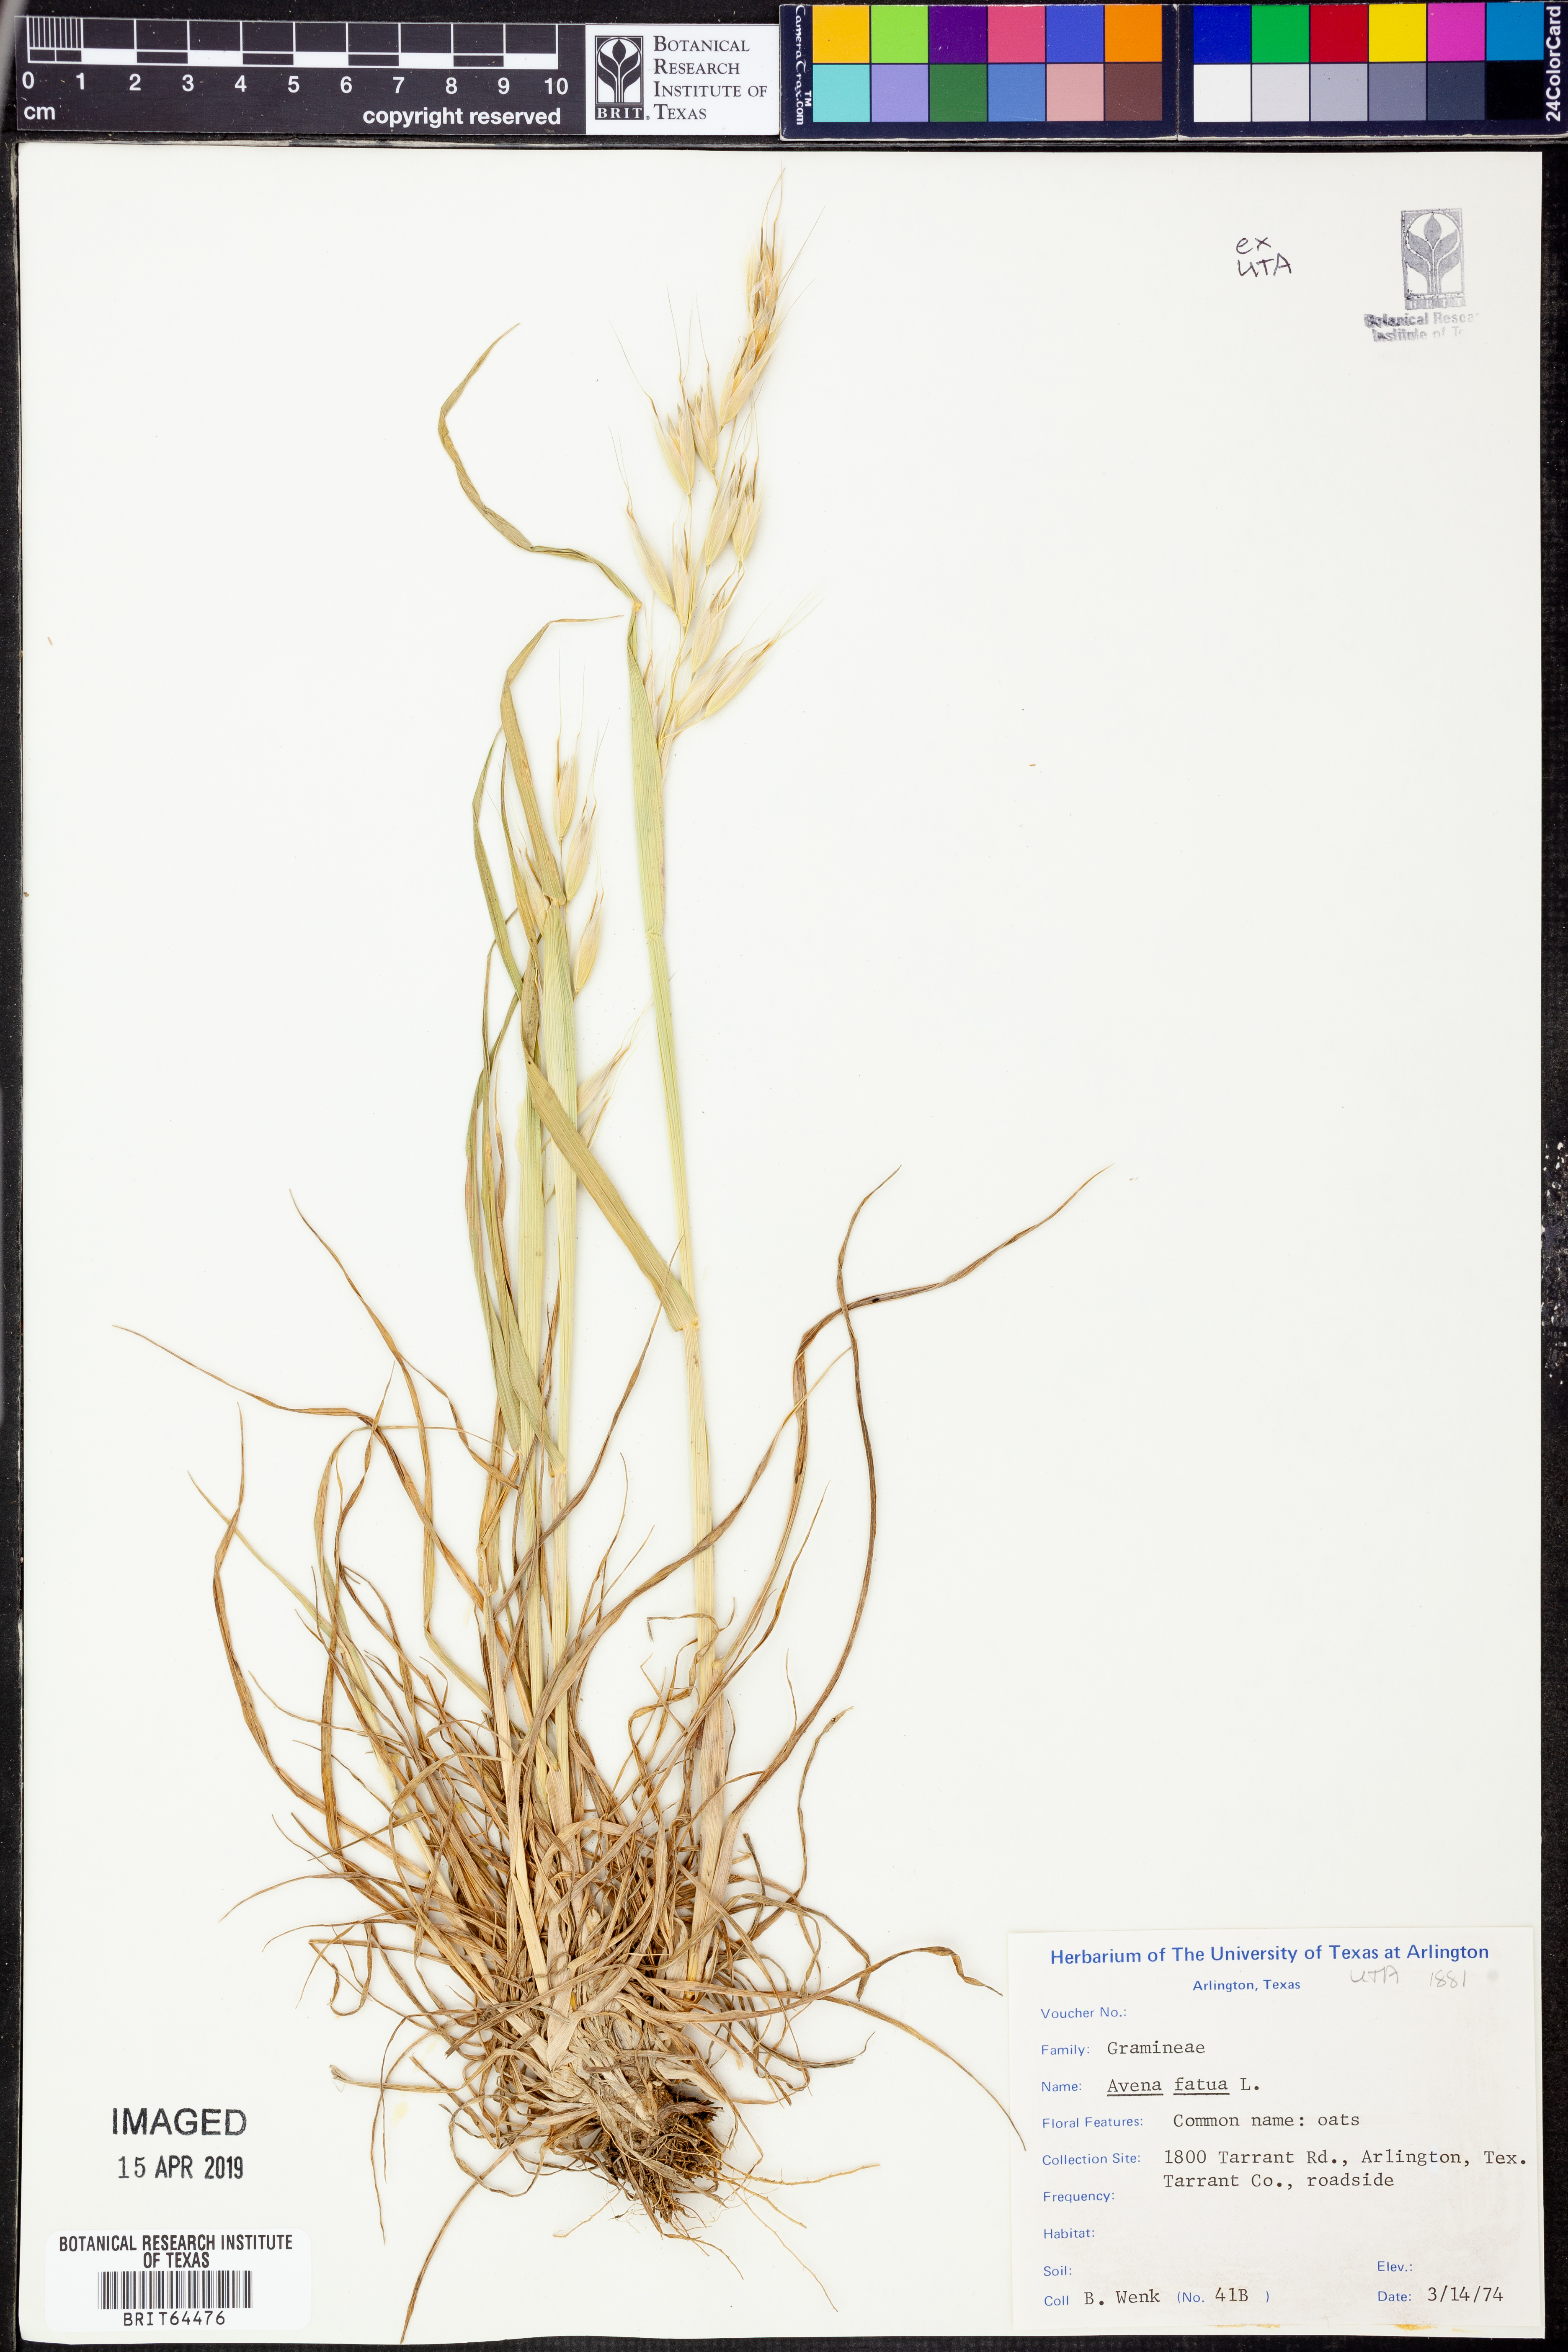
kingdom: Plantae
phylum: Tracheophyta
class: Liliopsida
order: Poales
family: Poaceae
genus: Avena
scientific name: Avena fatua
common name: Wild oat
